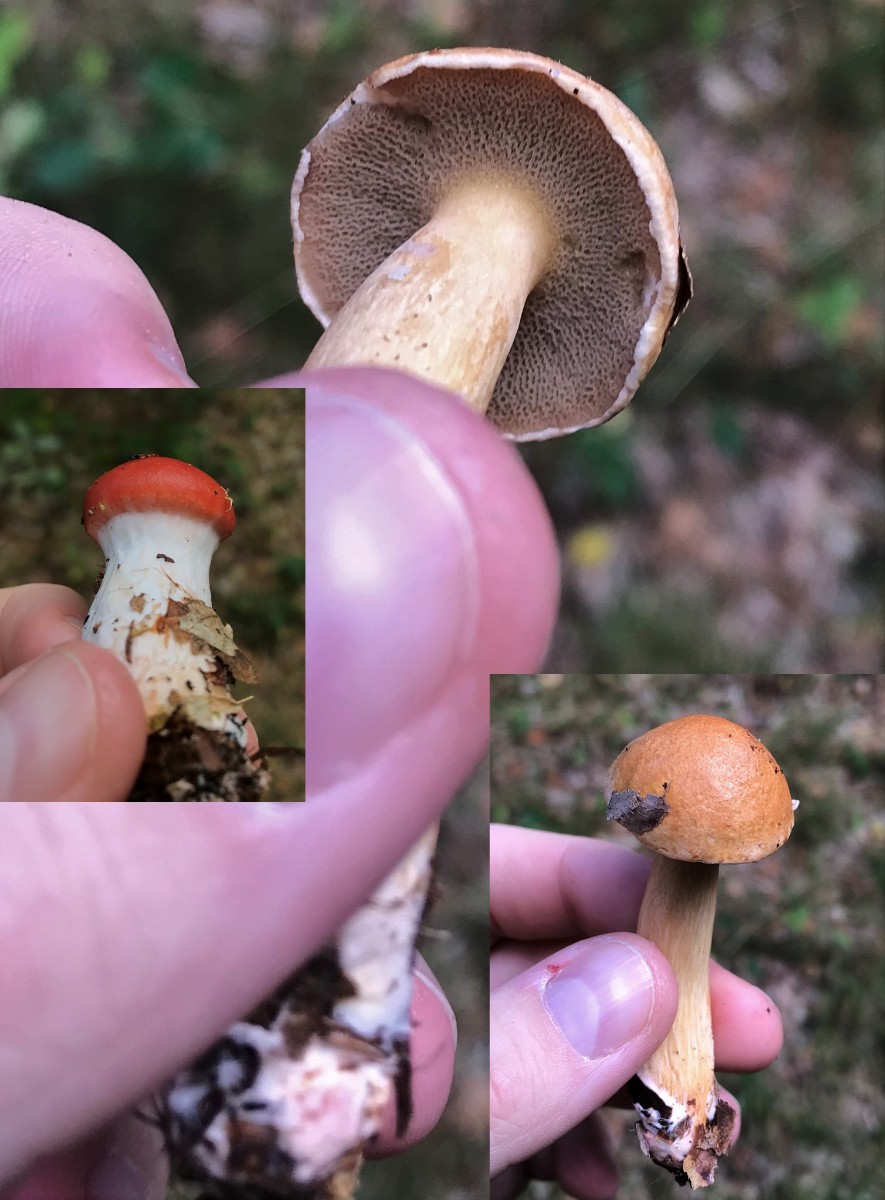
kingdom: Fungi
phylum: Basidiomycota
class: Agaricomycetes
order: Boletales
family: Gomphidiaceae
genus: Gomphidius
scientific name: Gomphidius roseus
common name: rosenrød slimslør
